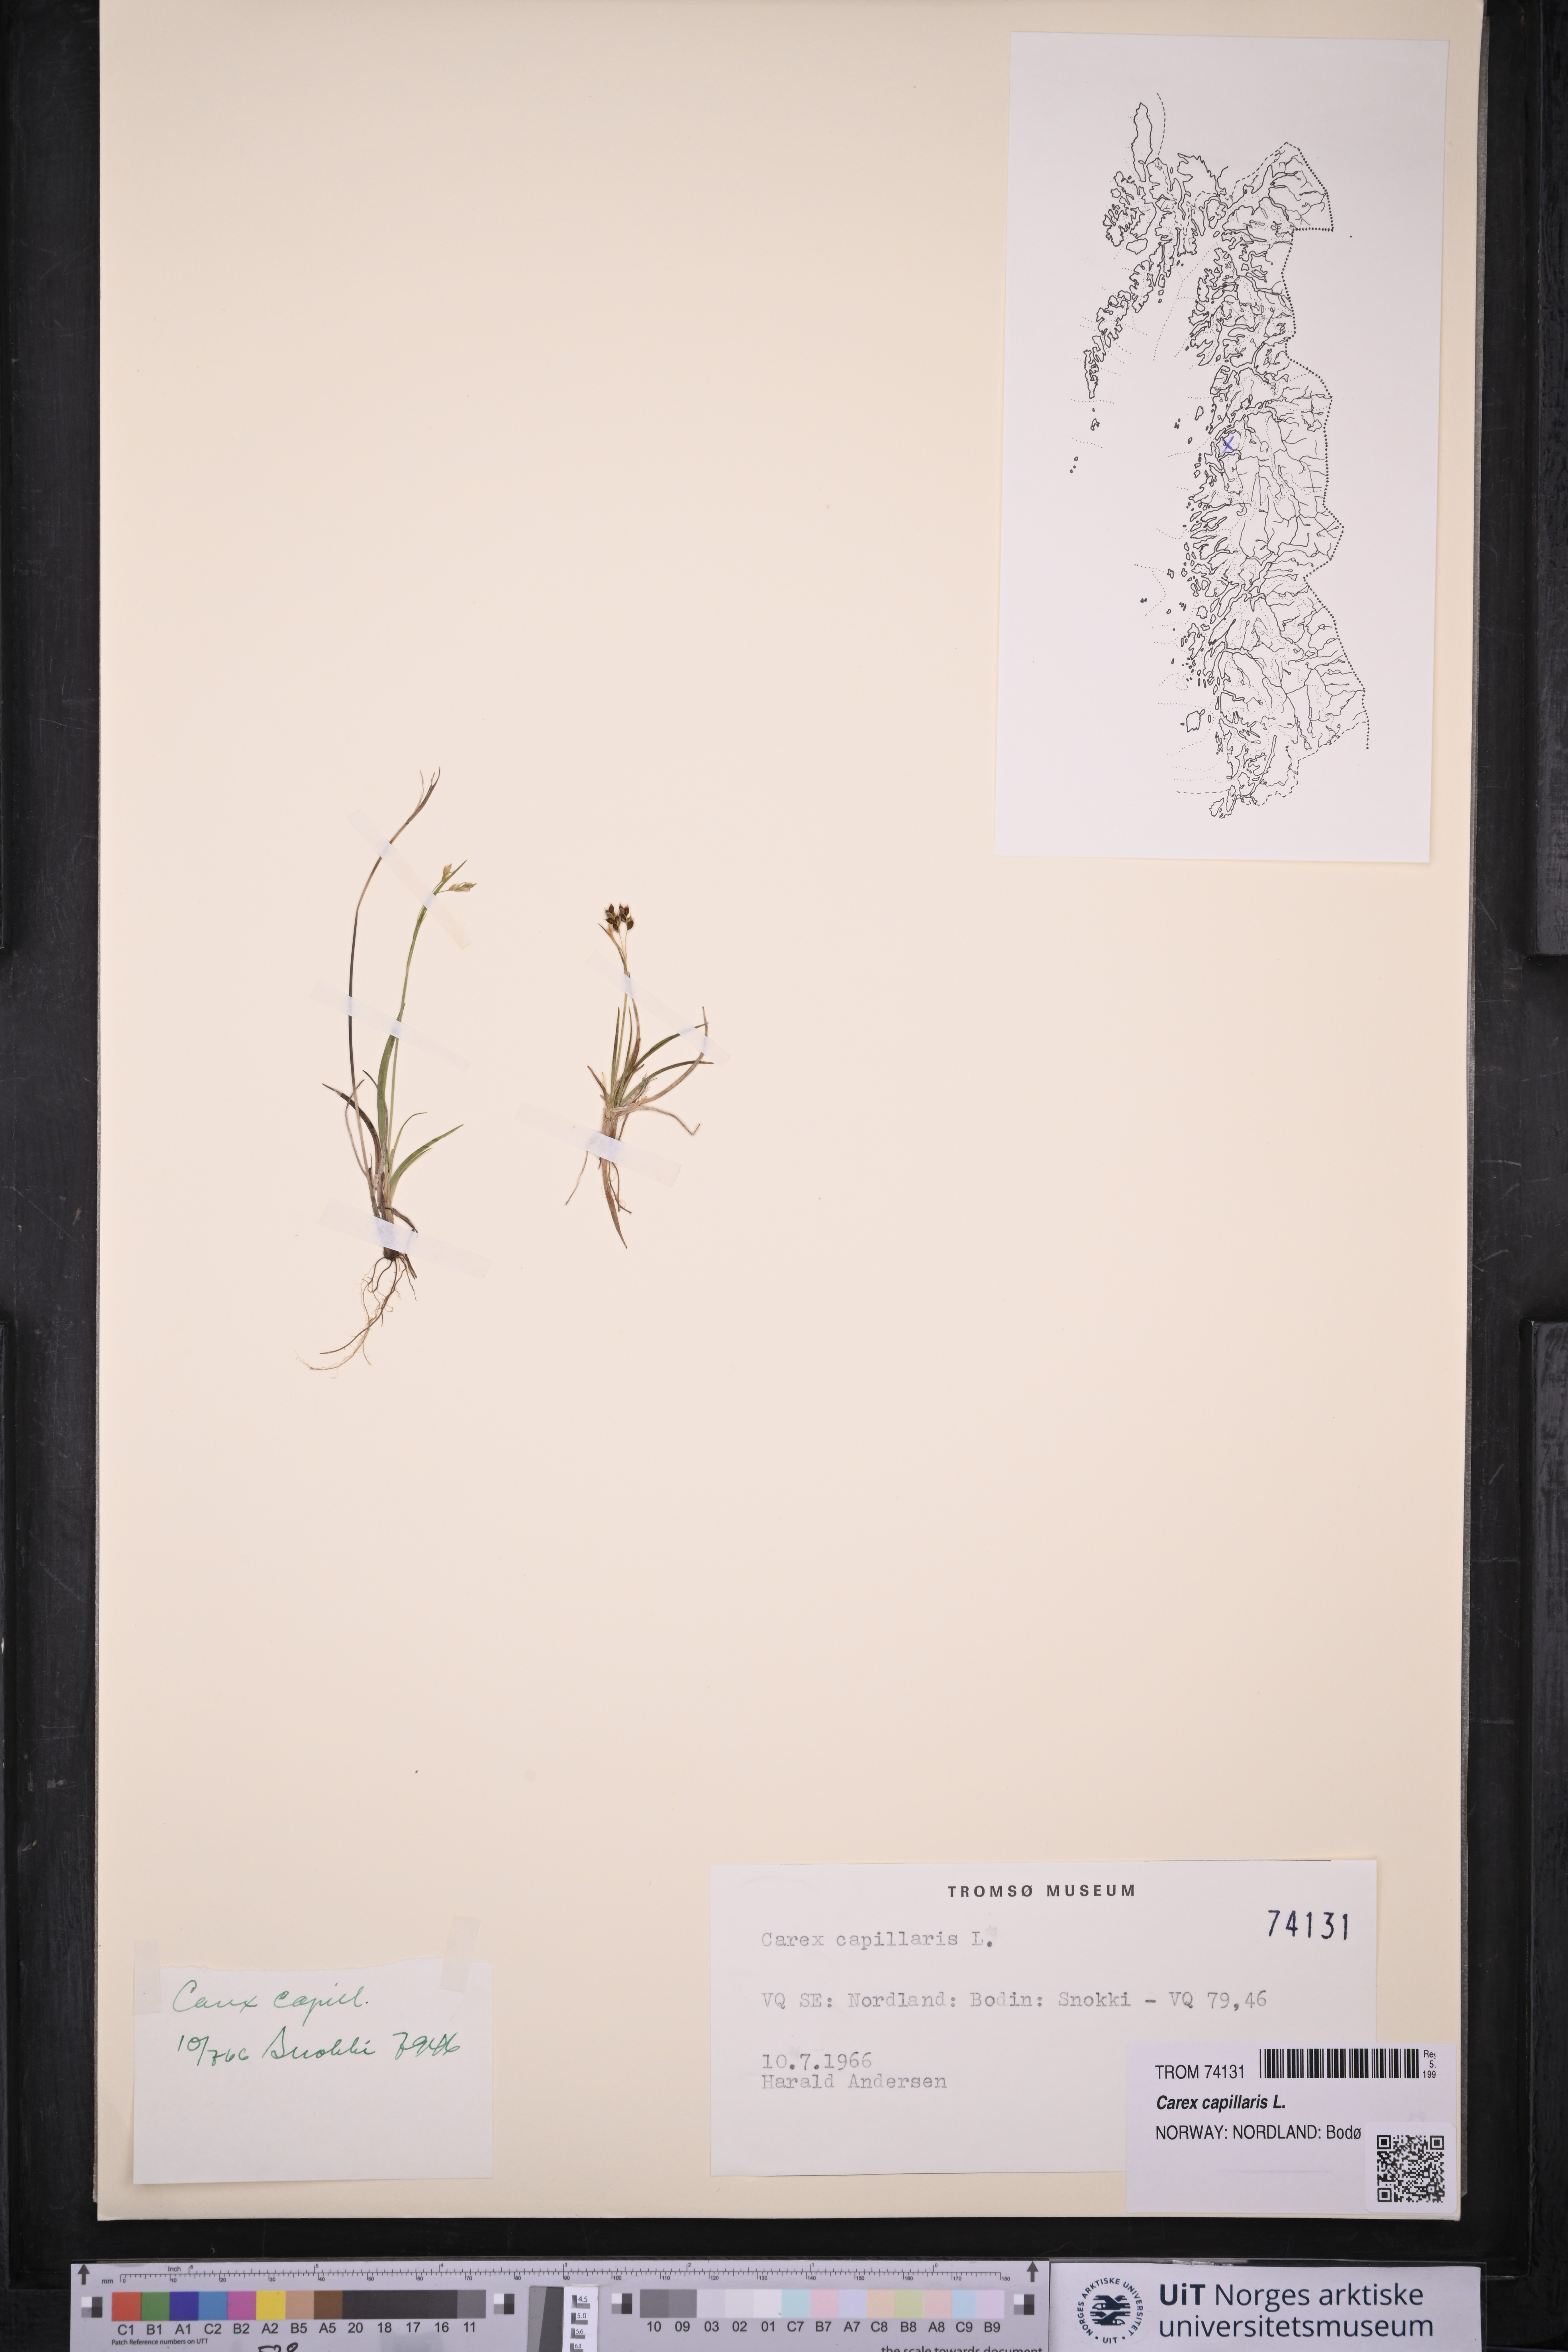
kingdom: Plantae
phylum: Tracheophyta
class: Liliopsida
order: Poales
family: Cyperaceae
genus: Carex
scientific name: Carex capillaris
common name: Hair sedge
